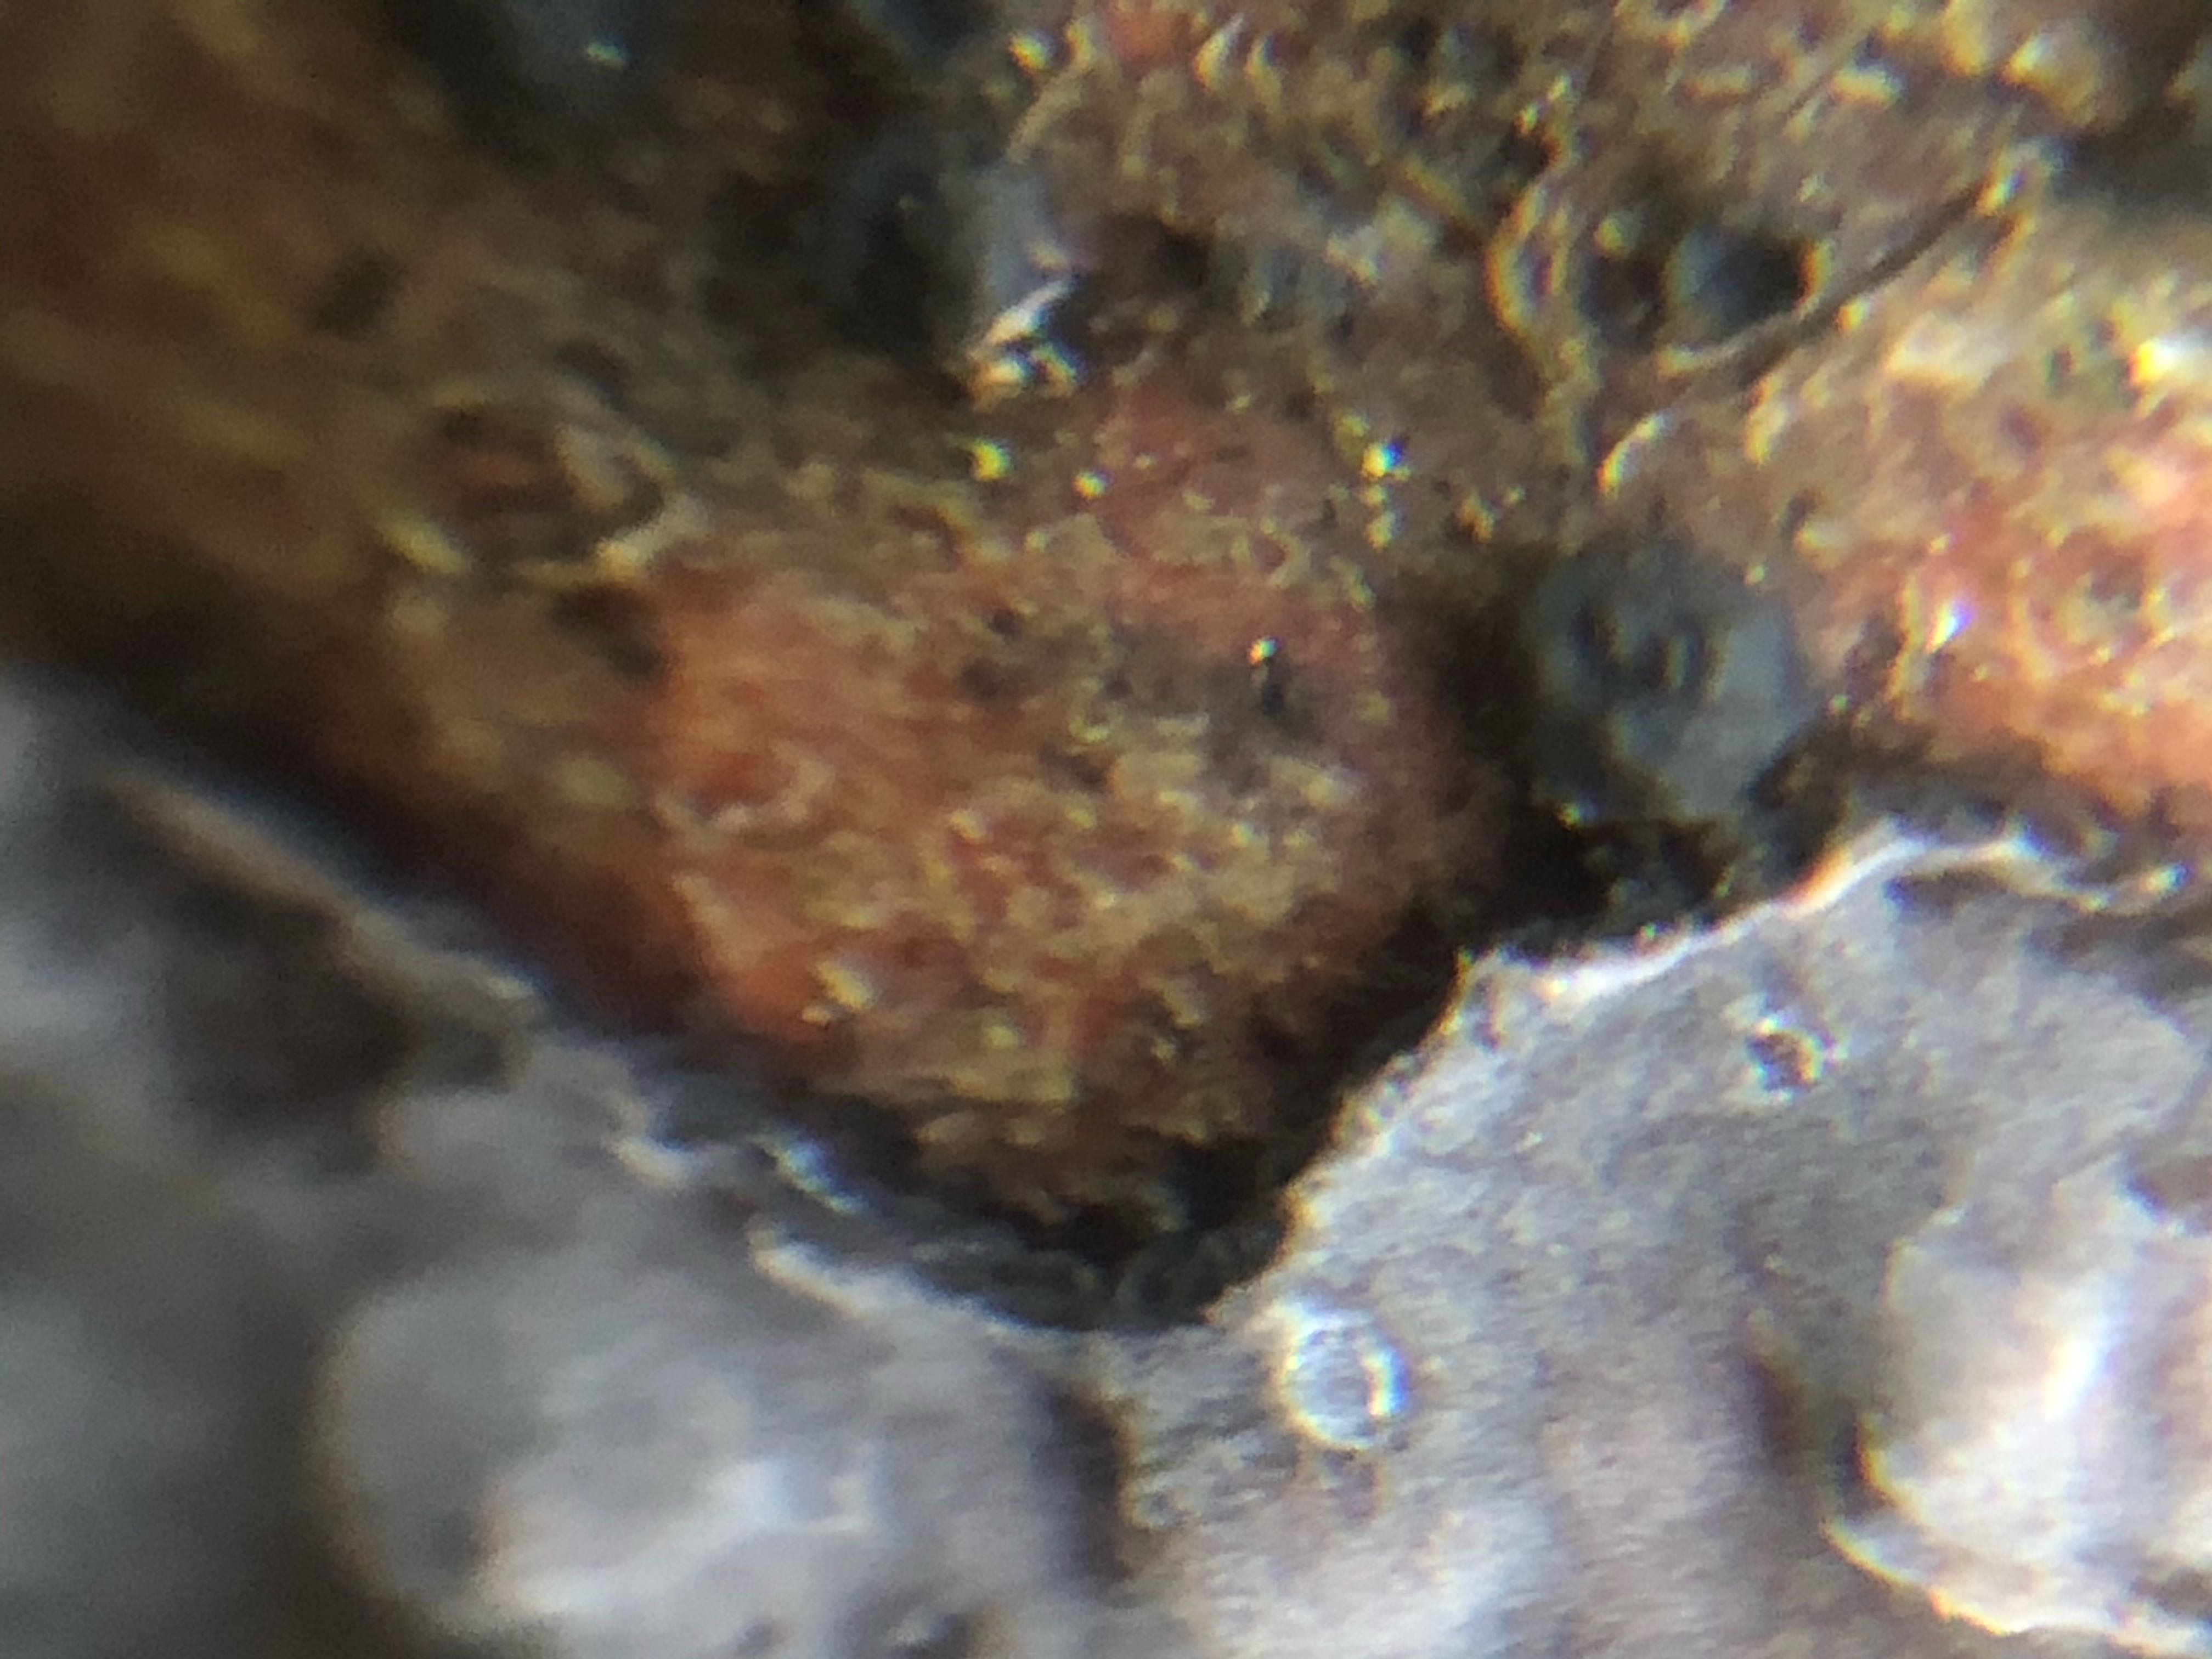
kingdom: Fungi
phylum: Basidiomycota
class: Agaricomycetes
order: Russulales
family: Peniophoraceae
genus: Peniophora
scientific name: Peniophora quercina
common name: ege-voksskind
